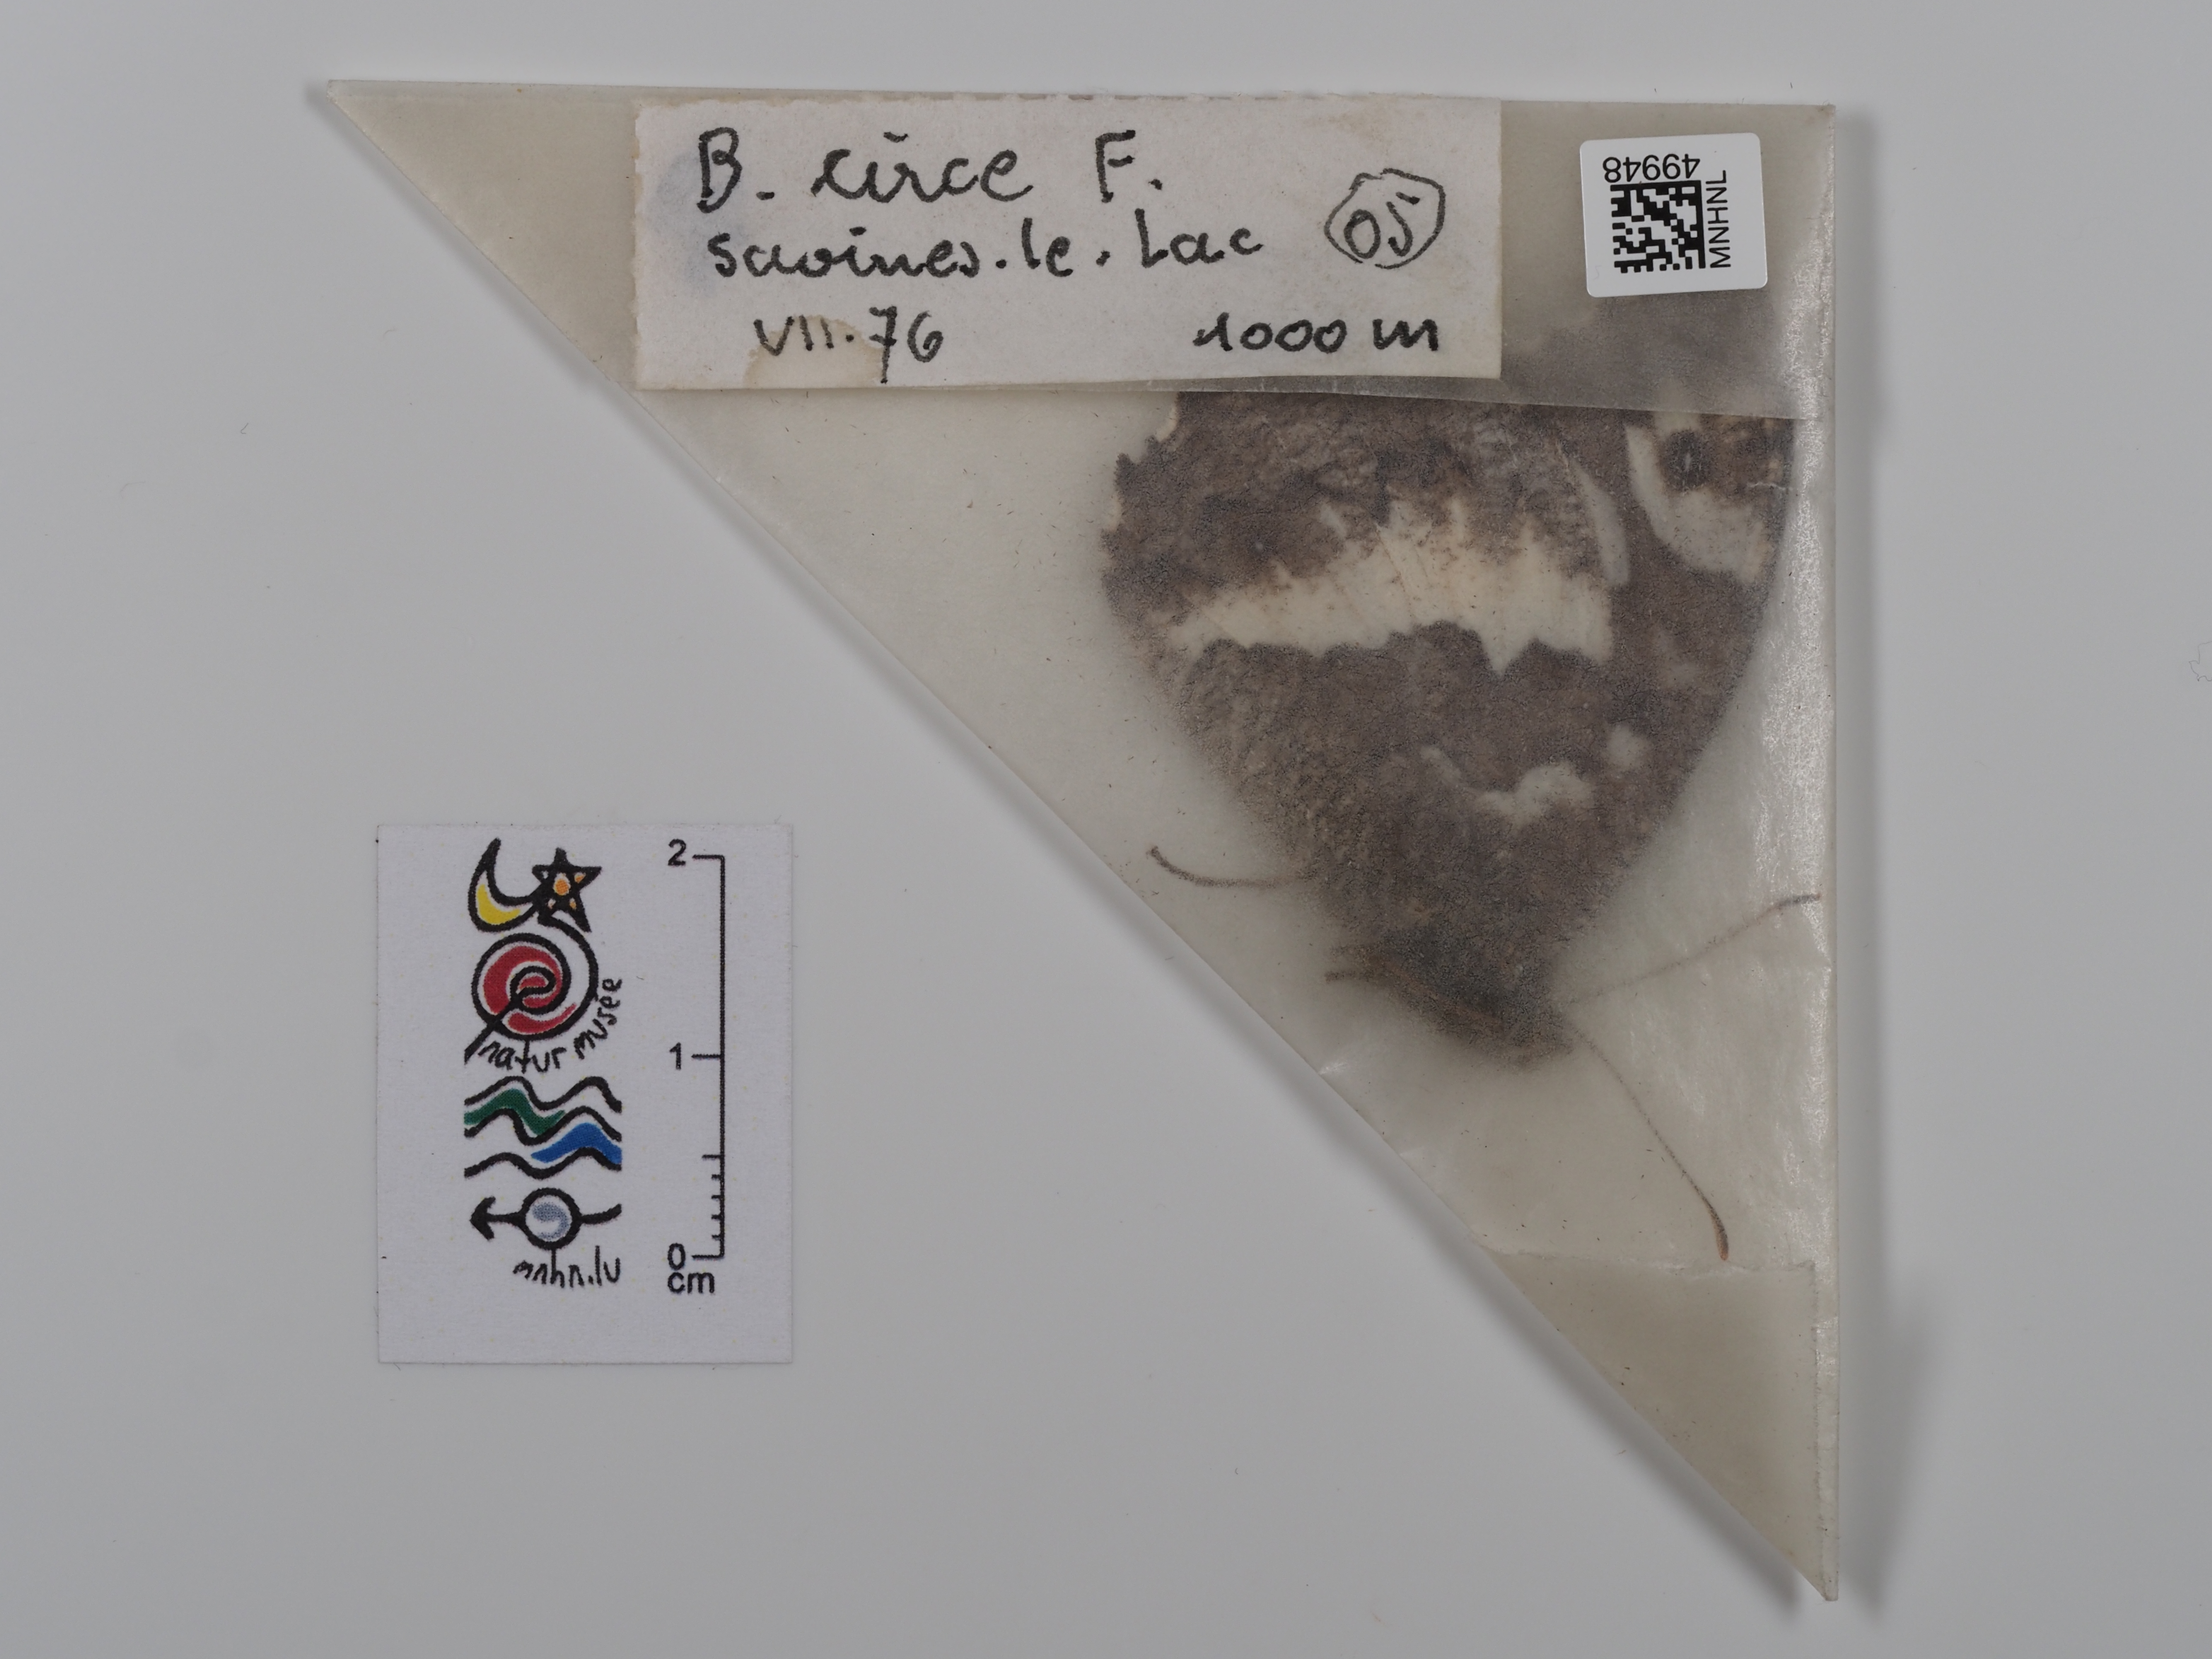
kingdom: Animalia
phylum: Arthropoda
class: Insecta
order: Lepidoptera
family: Lycaenidae
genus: Loweia
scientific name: Loweia tityrus
